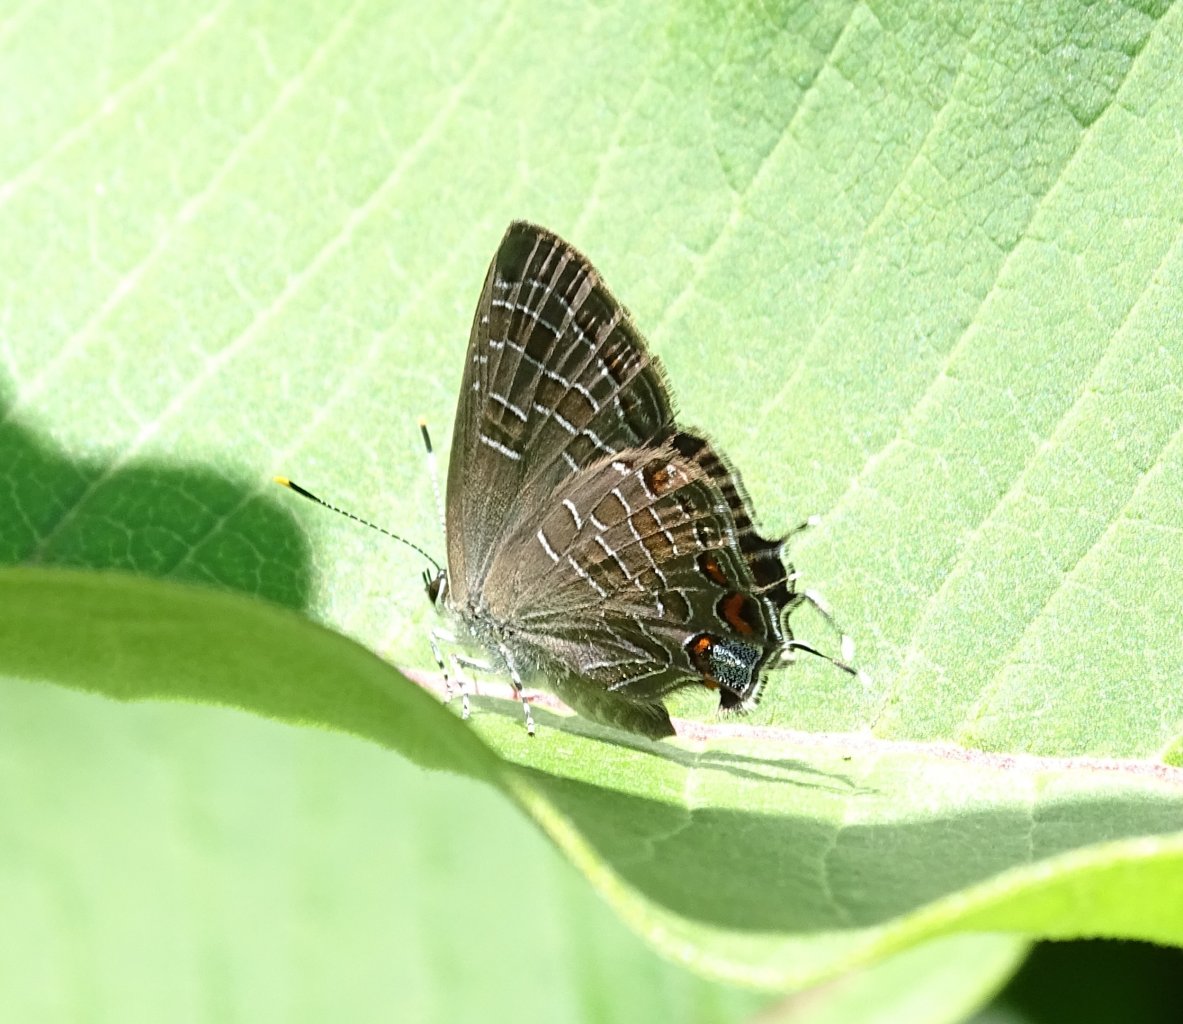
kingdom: Animalia
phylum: Arthropoda
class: Insecta
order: Lepidoptera
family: Lycaenidae
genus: Satyrium
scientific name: Satyrium liparops
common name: Striped Hairstreak
